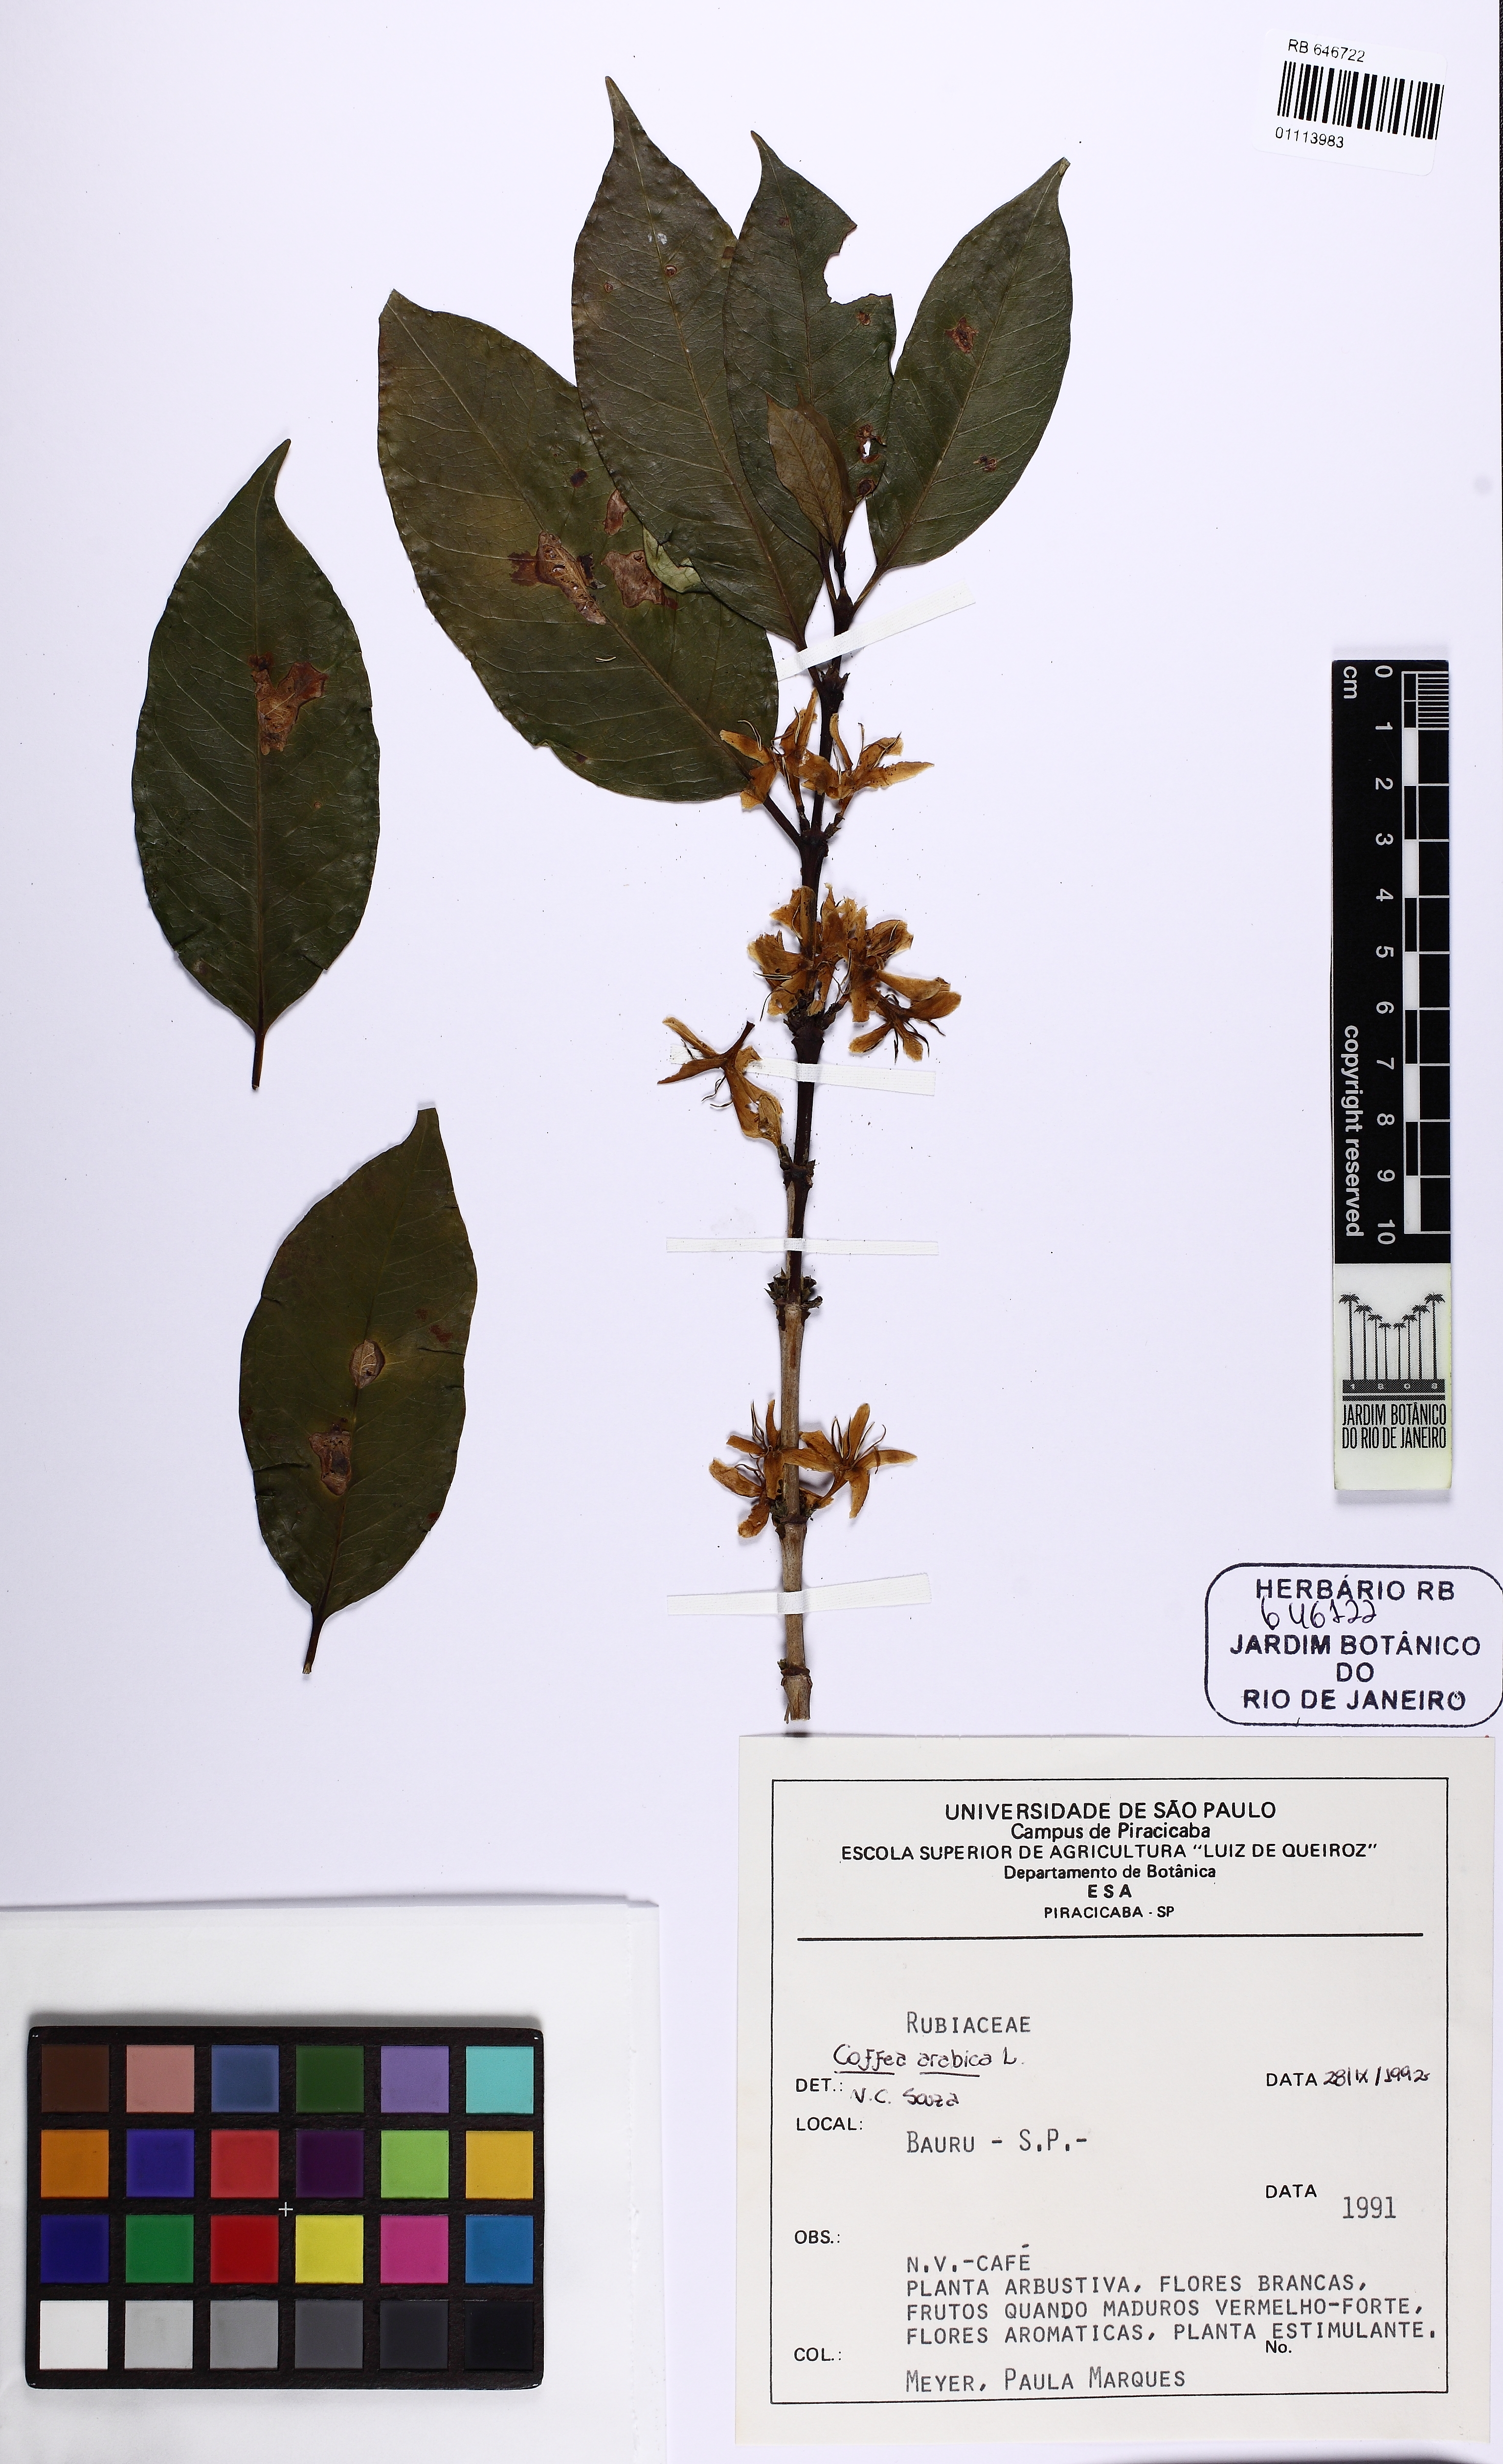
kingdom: Plantae
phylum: Tracheophyta
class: Magnoliopsida
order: Gentianales
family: Rubiaceae
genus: Coffea
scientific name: Coffea arabica
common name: Coffee
